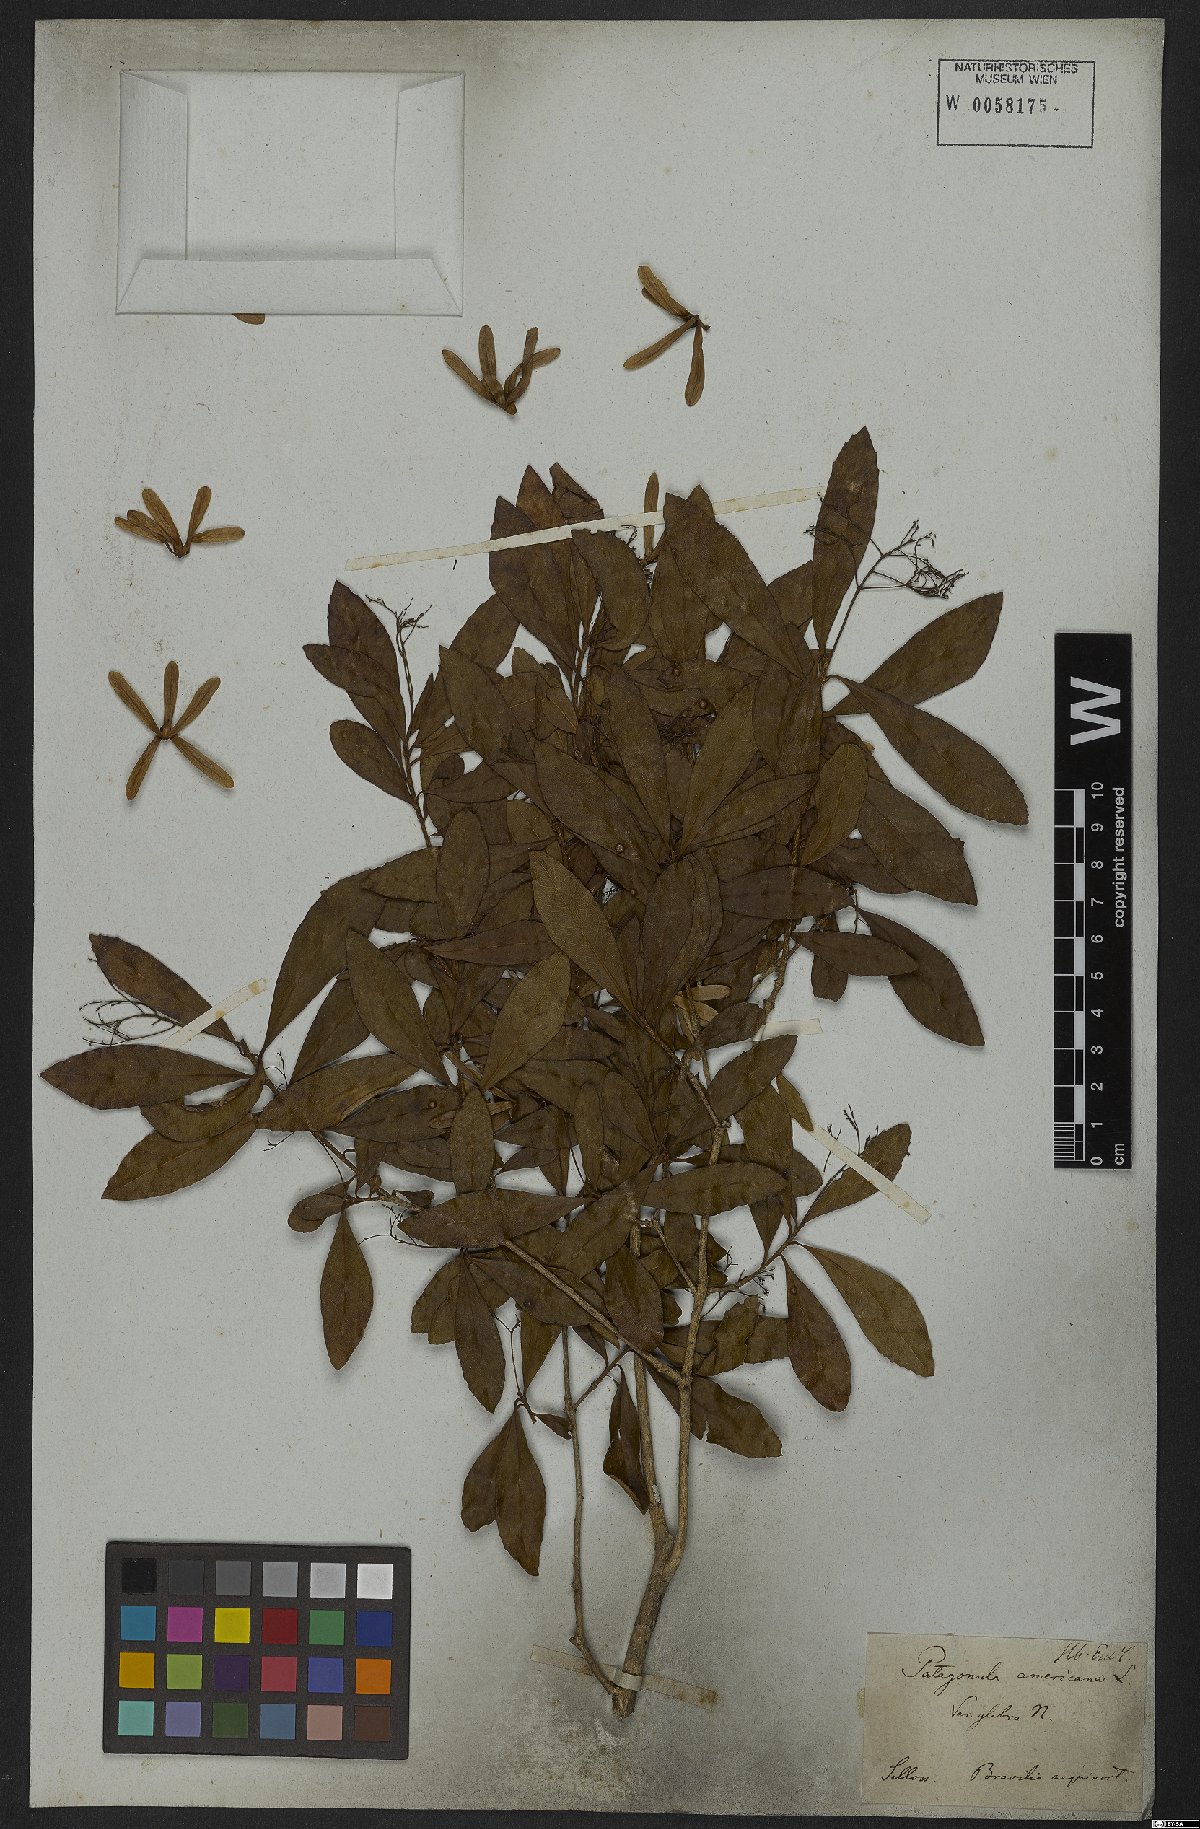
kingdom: Plantae
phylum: Tracheophyta
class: Magnoliopsida
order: Boraginales
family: Cordiaceae
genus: Cordia
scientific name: Cordia americana
